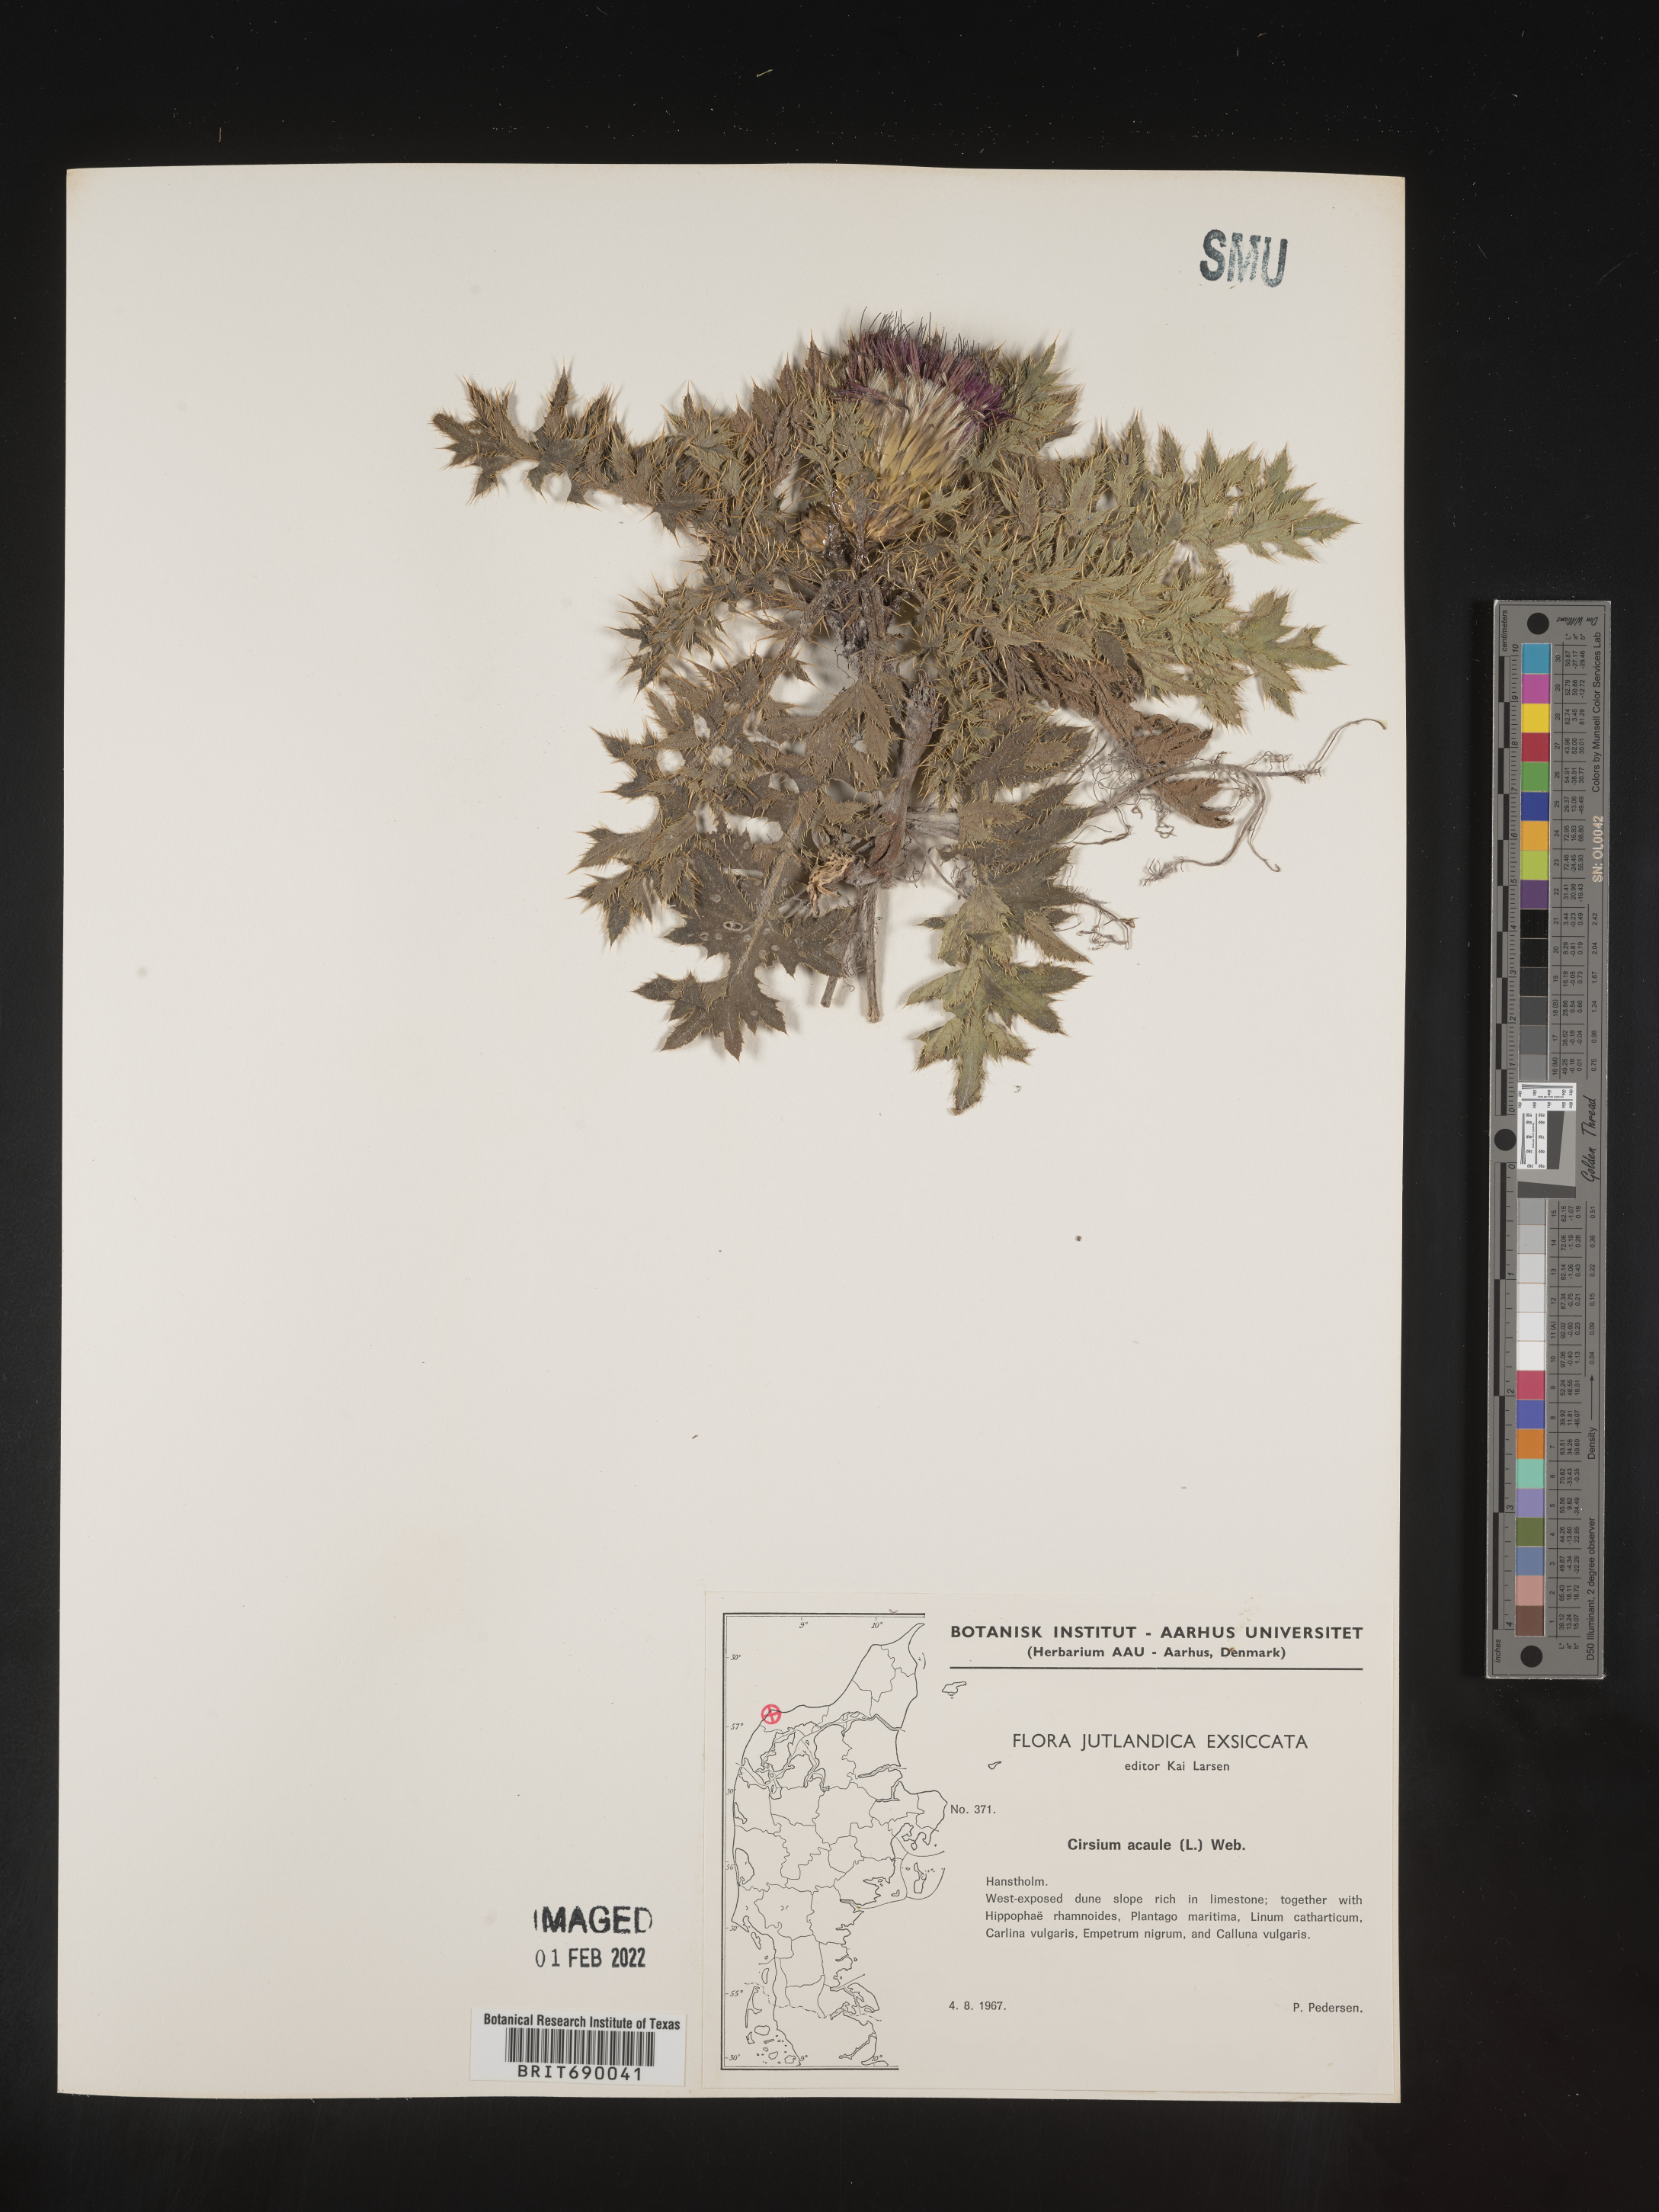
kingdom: Plantae
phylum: Tracheophyta
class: Magnoliopsida
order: Asterales
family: Asteraceae
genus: Cirsium
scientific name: Cirsium
